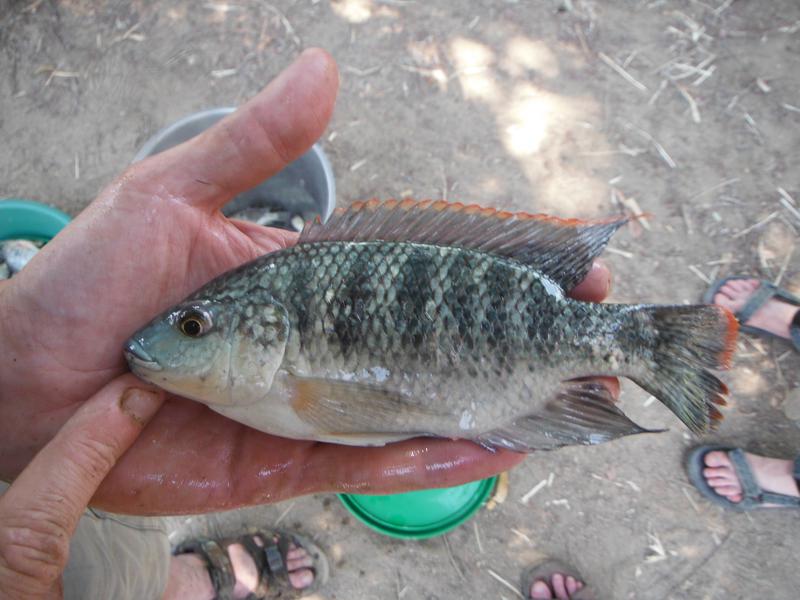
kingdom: Animalia
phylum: Chordata
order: Perciformes
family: Cichlidae
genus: Oreochromis
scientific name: Oreochromis
